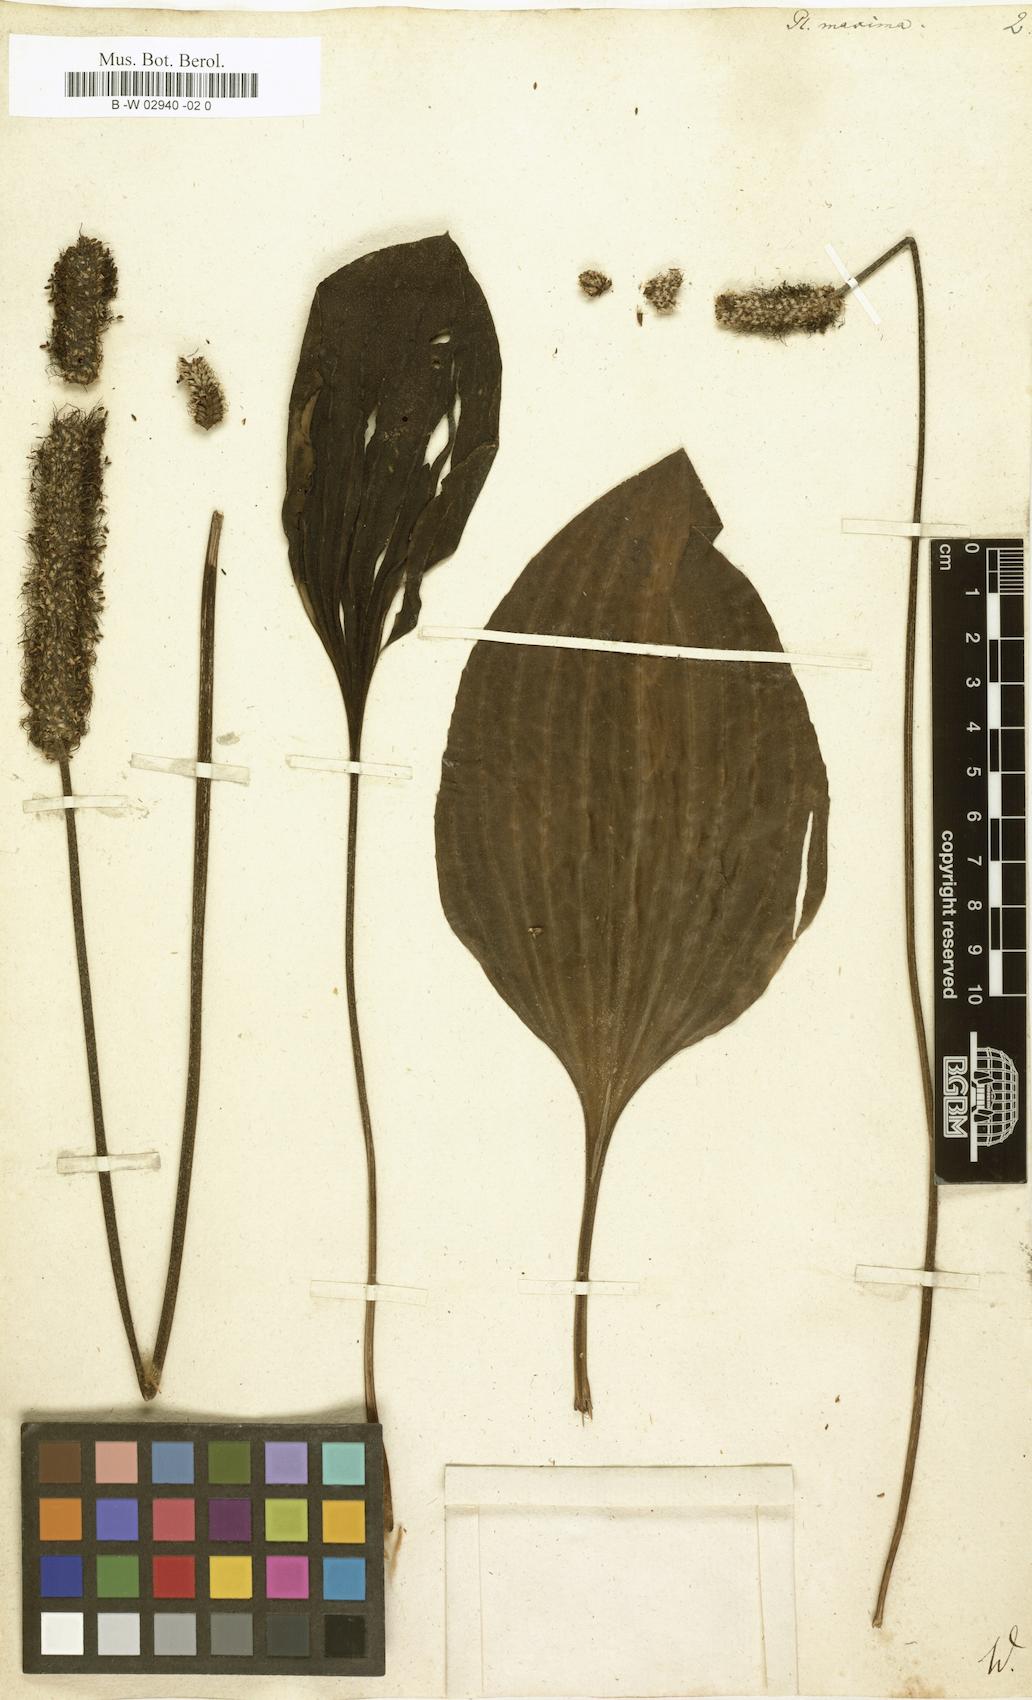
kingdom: Plantae
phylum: Tracheophyta
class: Magnoliopsida
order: Lamiales
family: Plantaginaceae
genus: Plantago
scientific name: Plantago maxima
